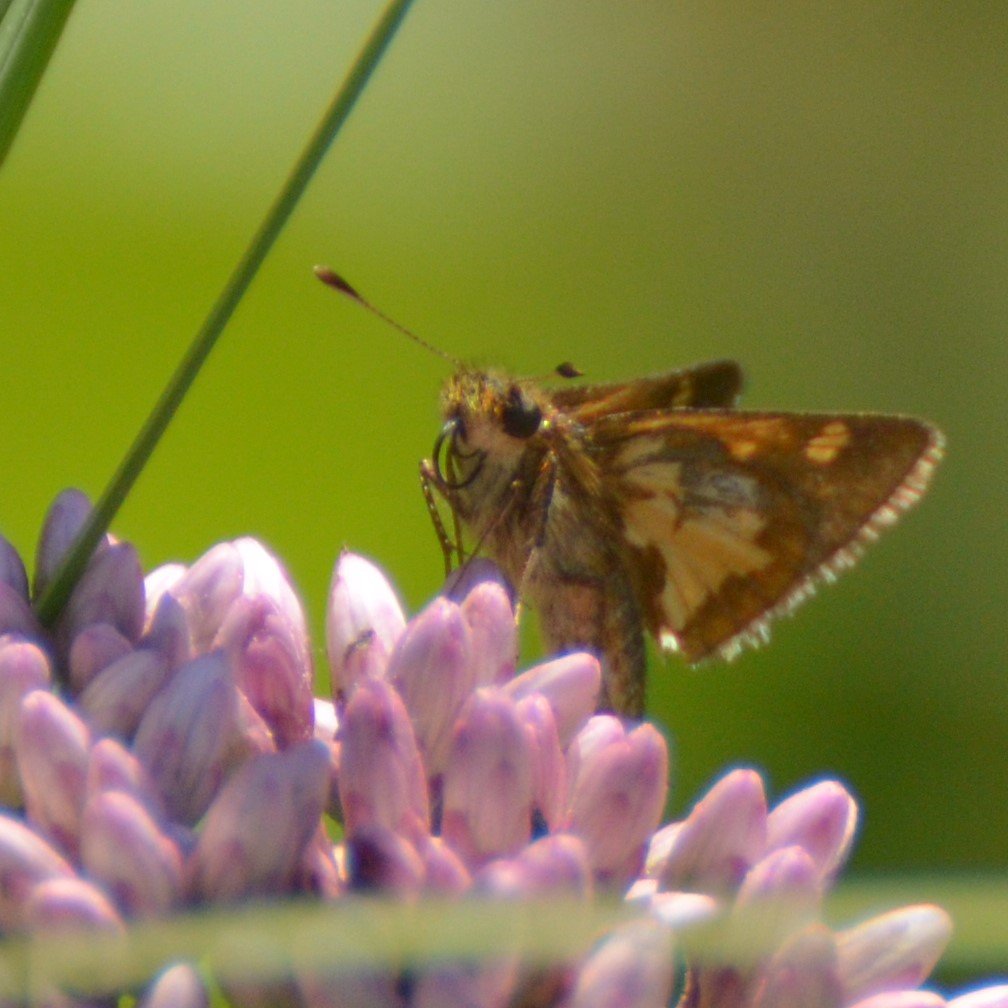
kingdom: Animalia
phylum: Arthropoda
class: Insecta
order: Lepidoptera
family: Hesperiidae
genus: Polites
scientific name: Polites coras
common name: Peck's Skipper
